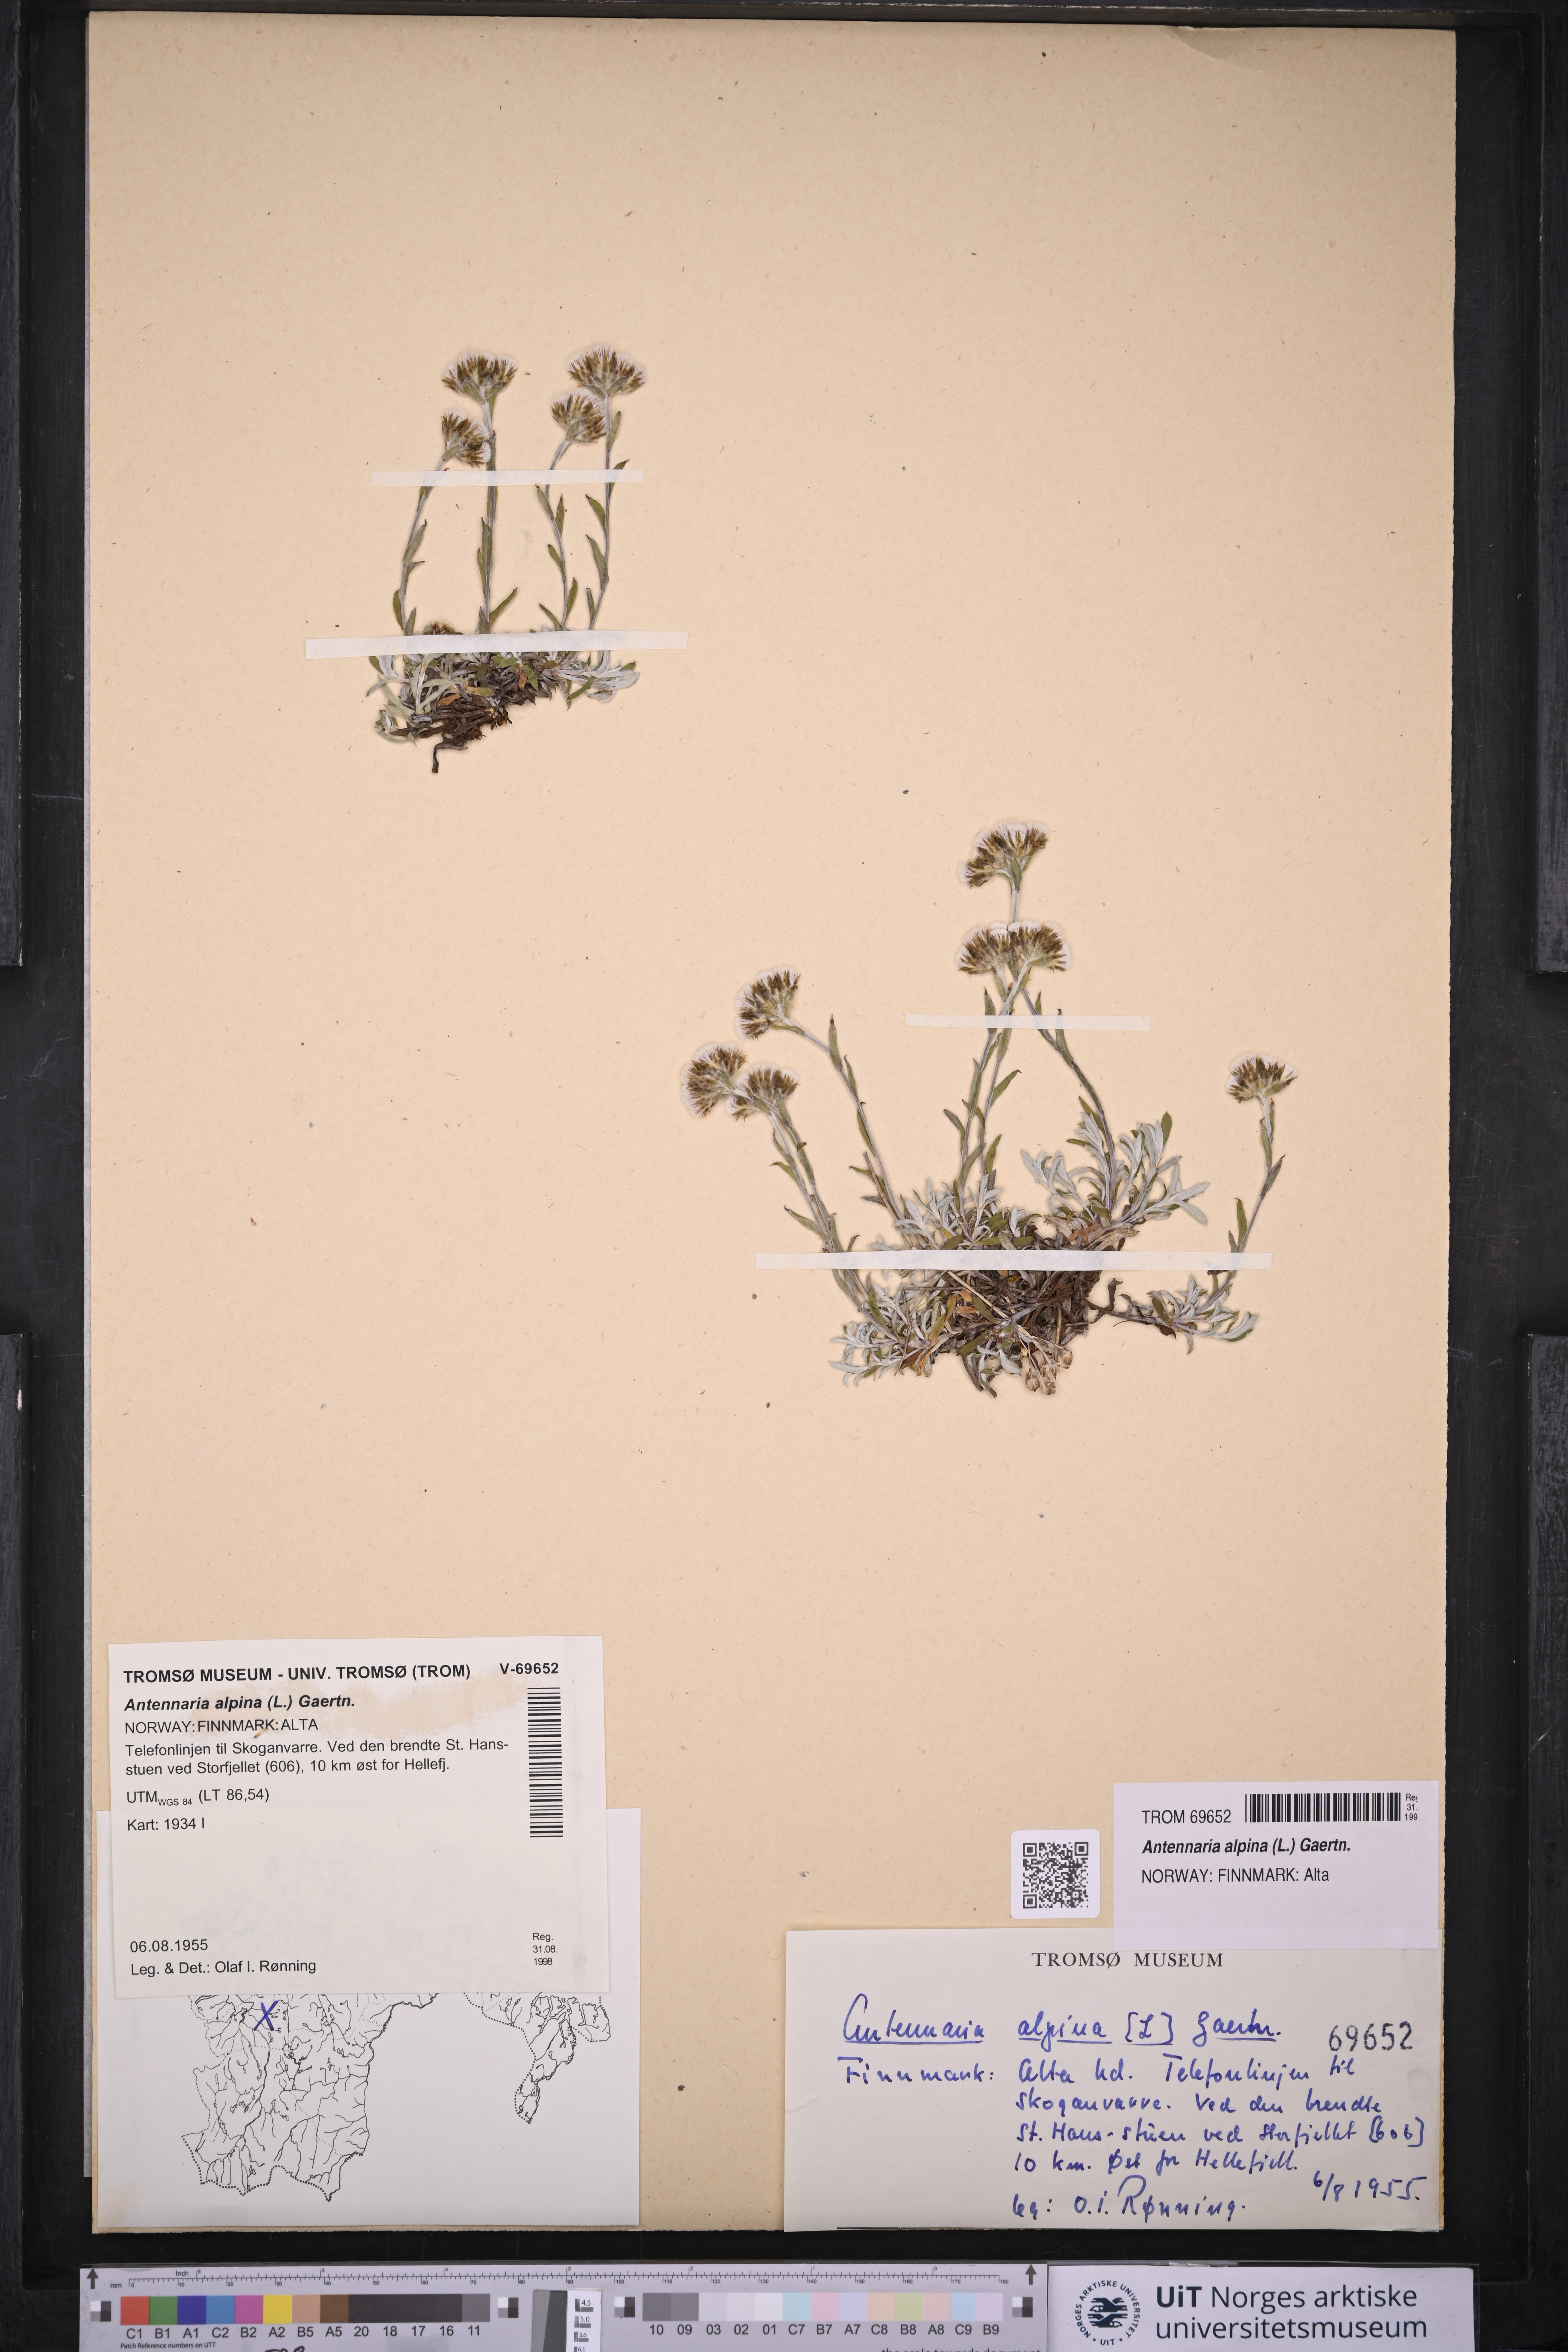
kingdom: Plantae
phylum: Tracheophyta
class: Magnoliopsida
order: Asterales
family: Asteraceae
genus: Antennaria
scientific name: Antennaria alpina
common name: Alpine pussytoes
